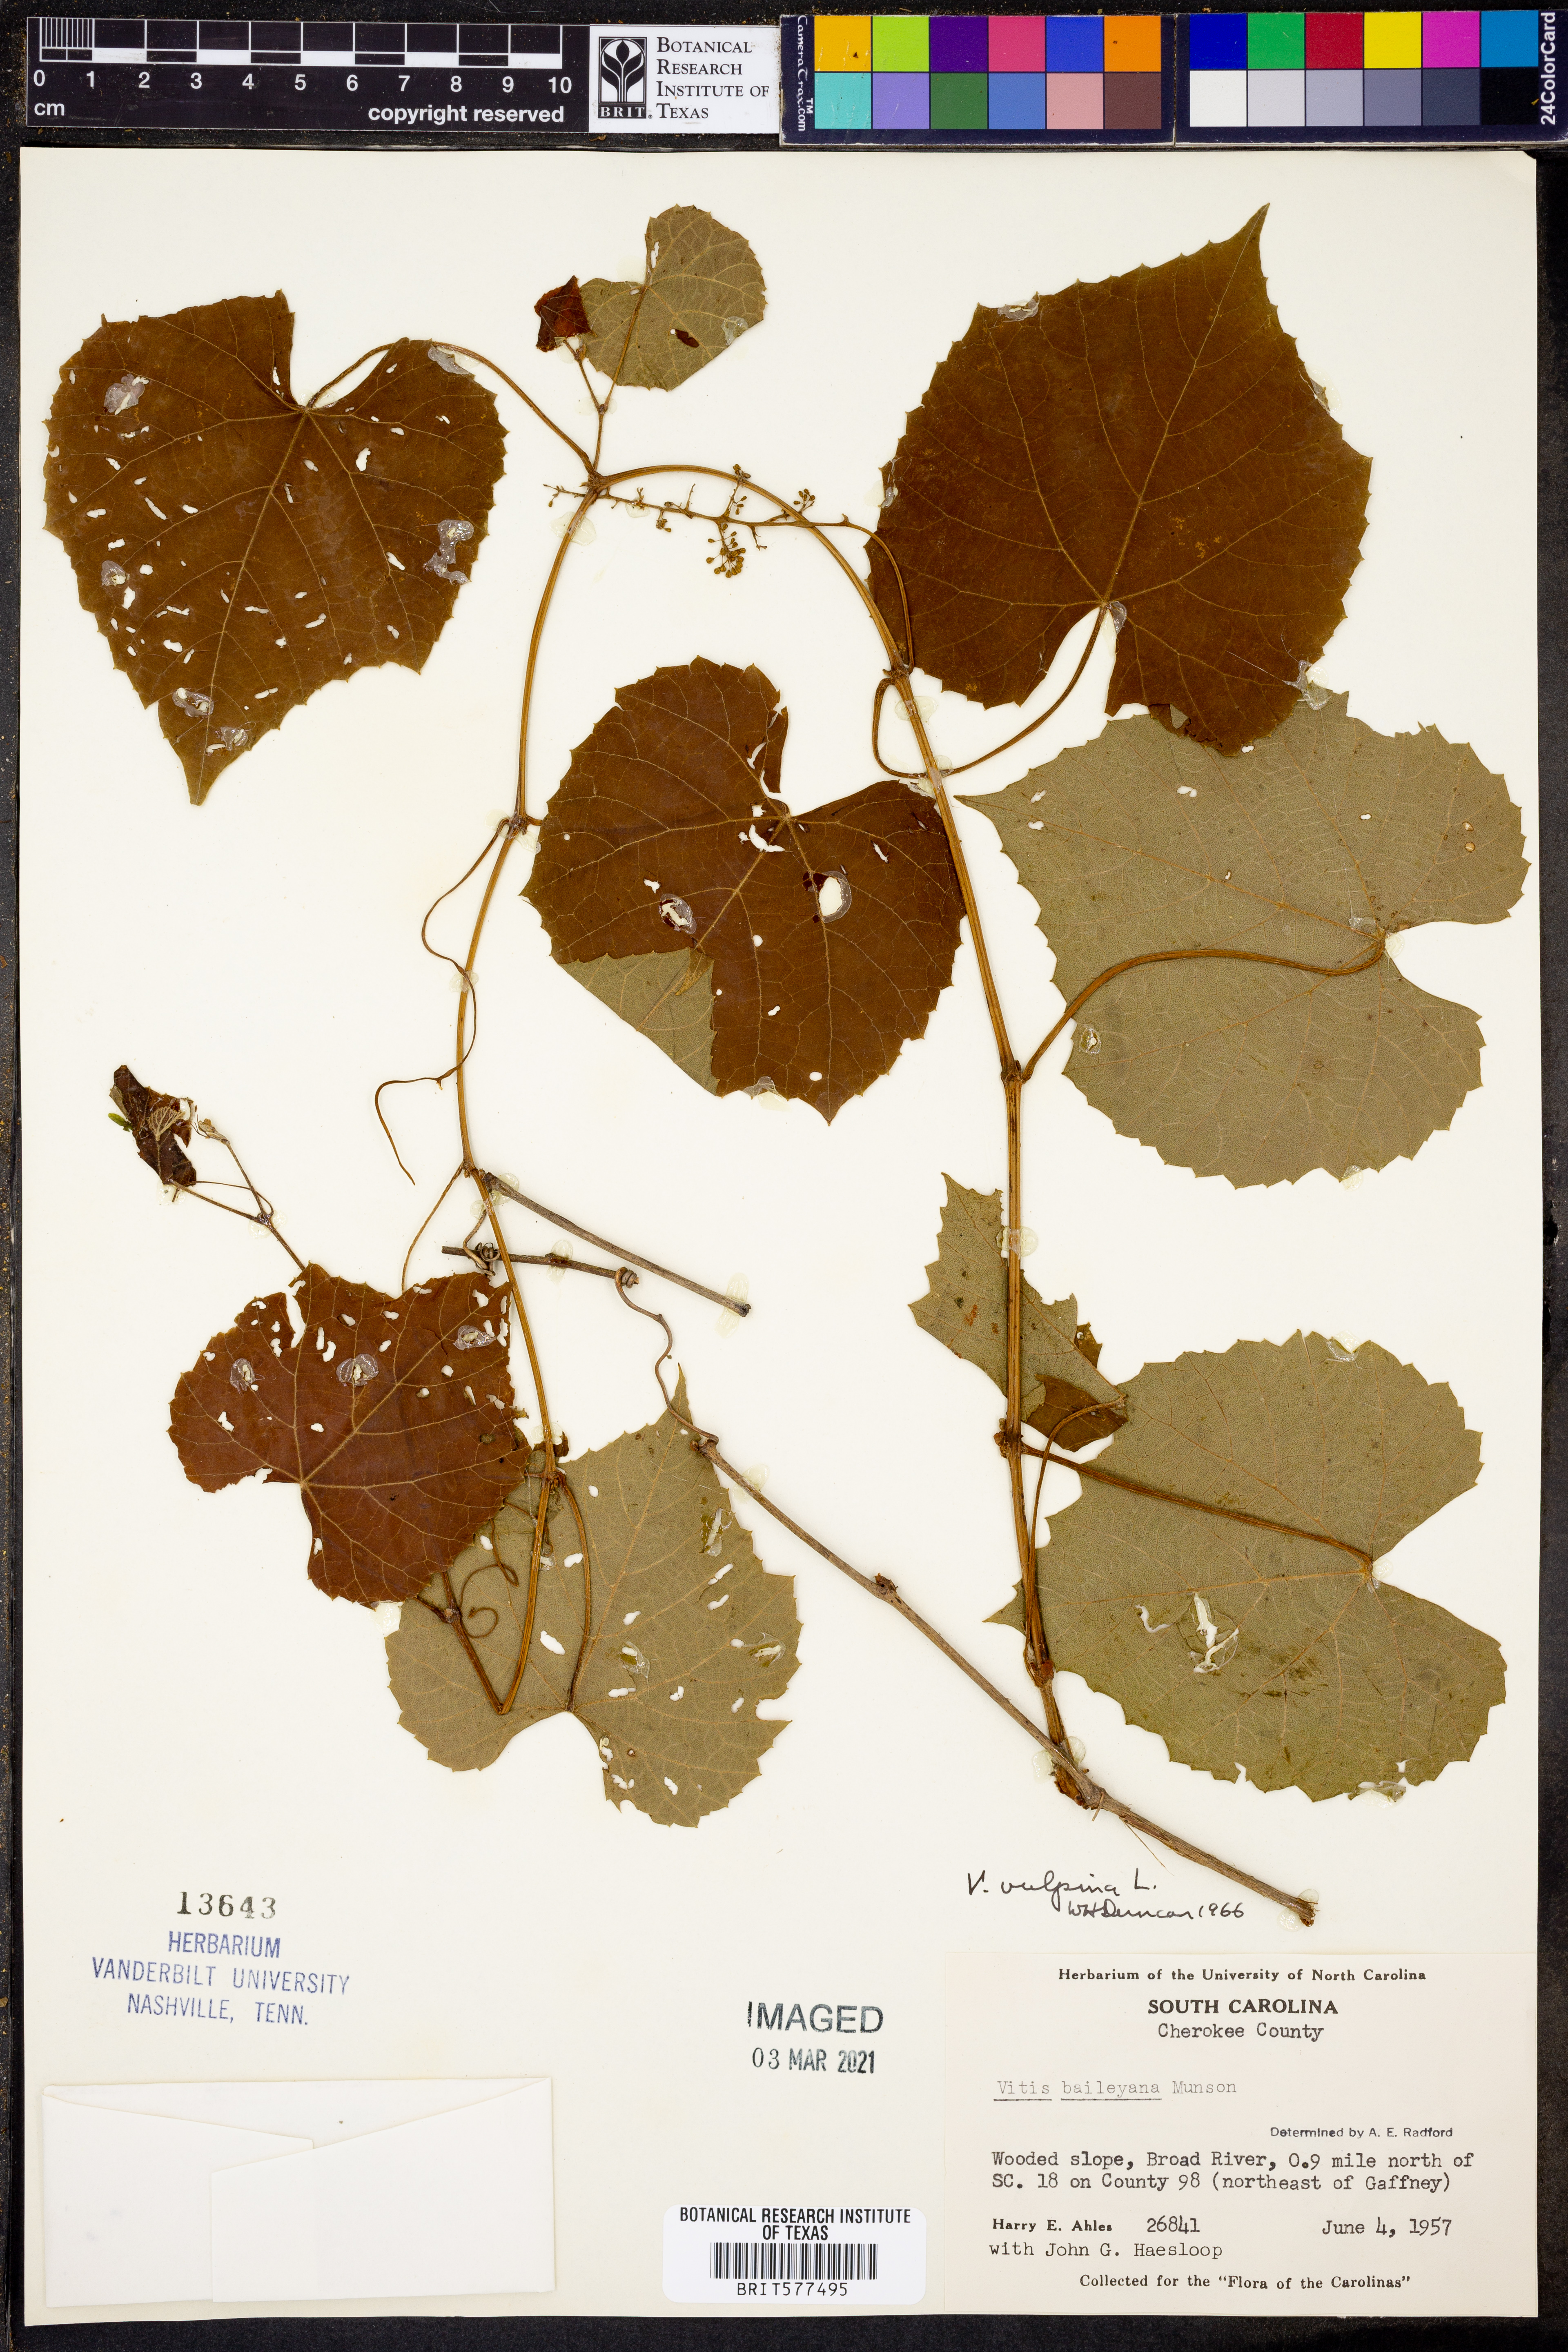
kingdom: Plantae
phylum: Tracheophyta
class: Magnoliopsida
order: Vitales
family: Vitaceae
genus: Vitis
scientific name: Vitis vulpina
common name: Frost grape
